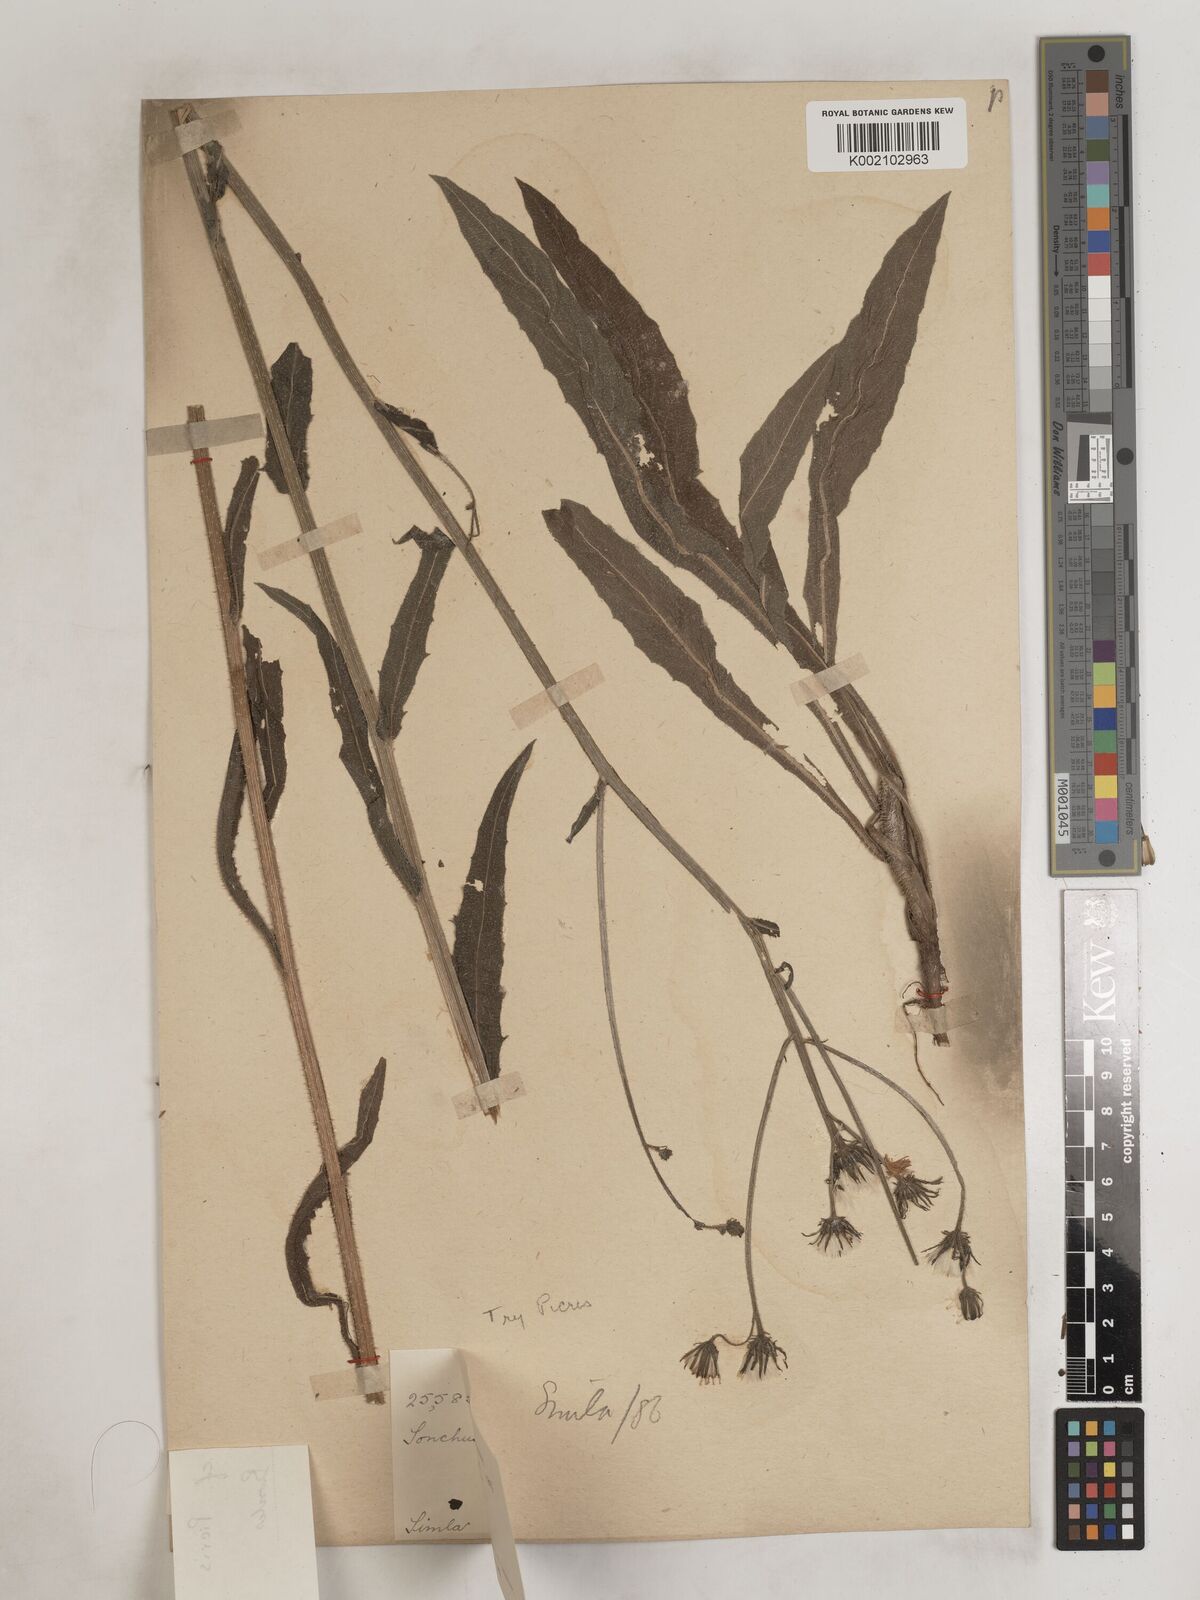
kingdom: Plantae
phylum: Tracheophyta
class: Magnoliopsida
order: Asterales
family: Asteraceae
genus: Sonchus
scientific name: Sonchus arvensis
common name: Perennial sow-thistle
